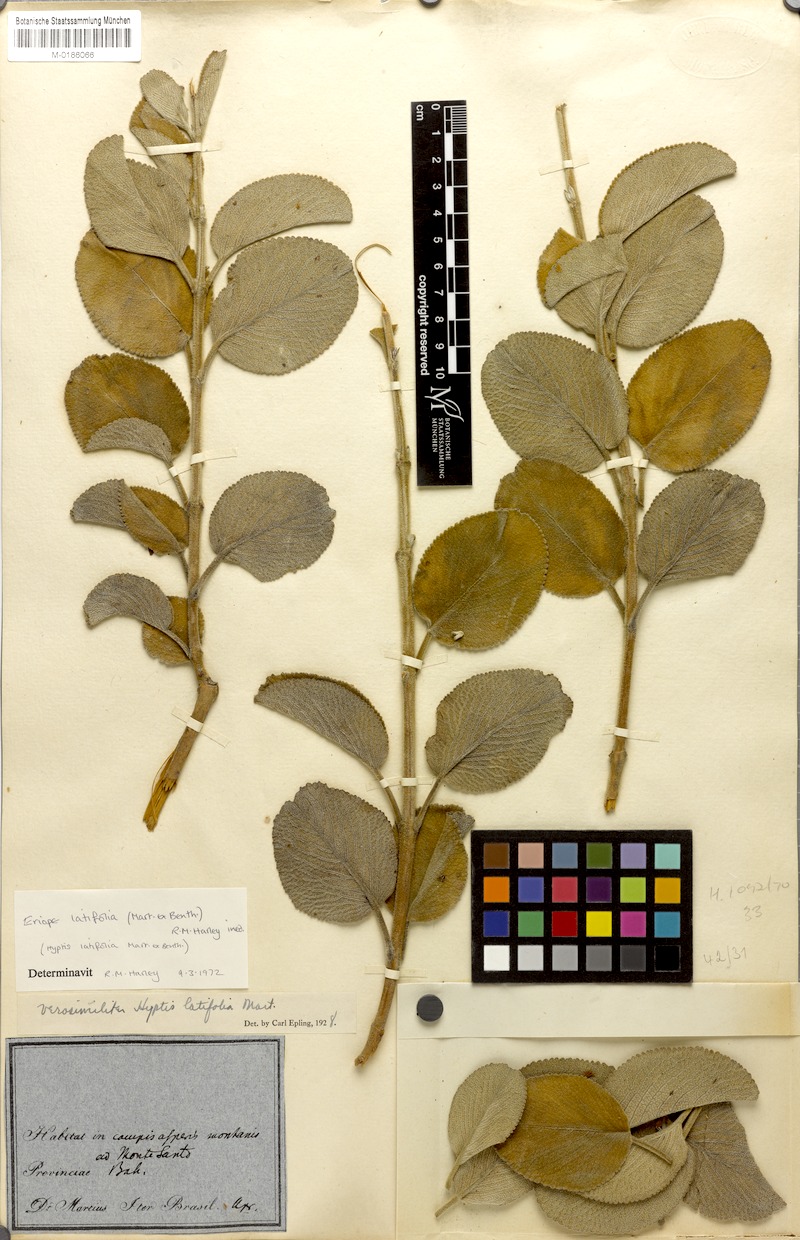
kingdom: Plantae
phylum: Tracheophyta
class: Magnoliopsida
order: Lamiales
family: Lamiaceae
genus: Eriope
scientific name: Eriope latifolia
